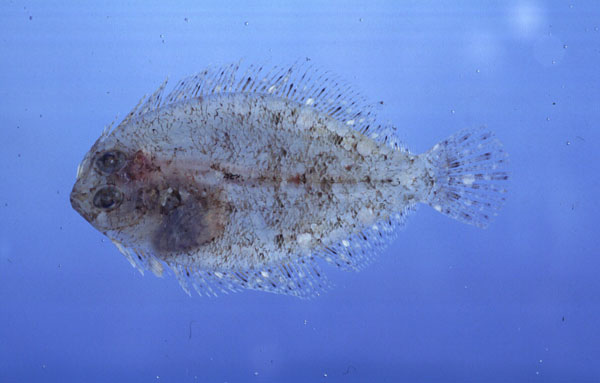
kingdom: Animalia
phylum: Chordata
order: Pleuronectiformes
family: Bothidae
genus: Engyprosopon
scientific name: Engyprosopon macrolepis
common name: Largescale dwarf flounder
